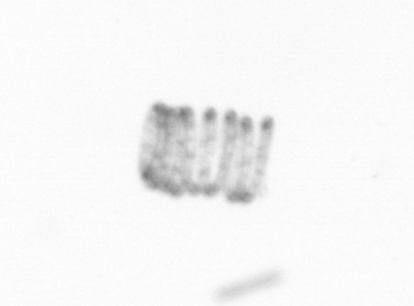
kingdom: Chromista
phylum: Ochrophyta
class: Bacillariophyceae
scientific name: Bacillariophyceae
